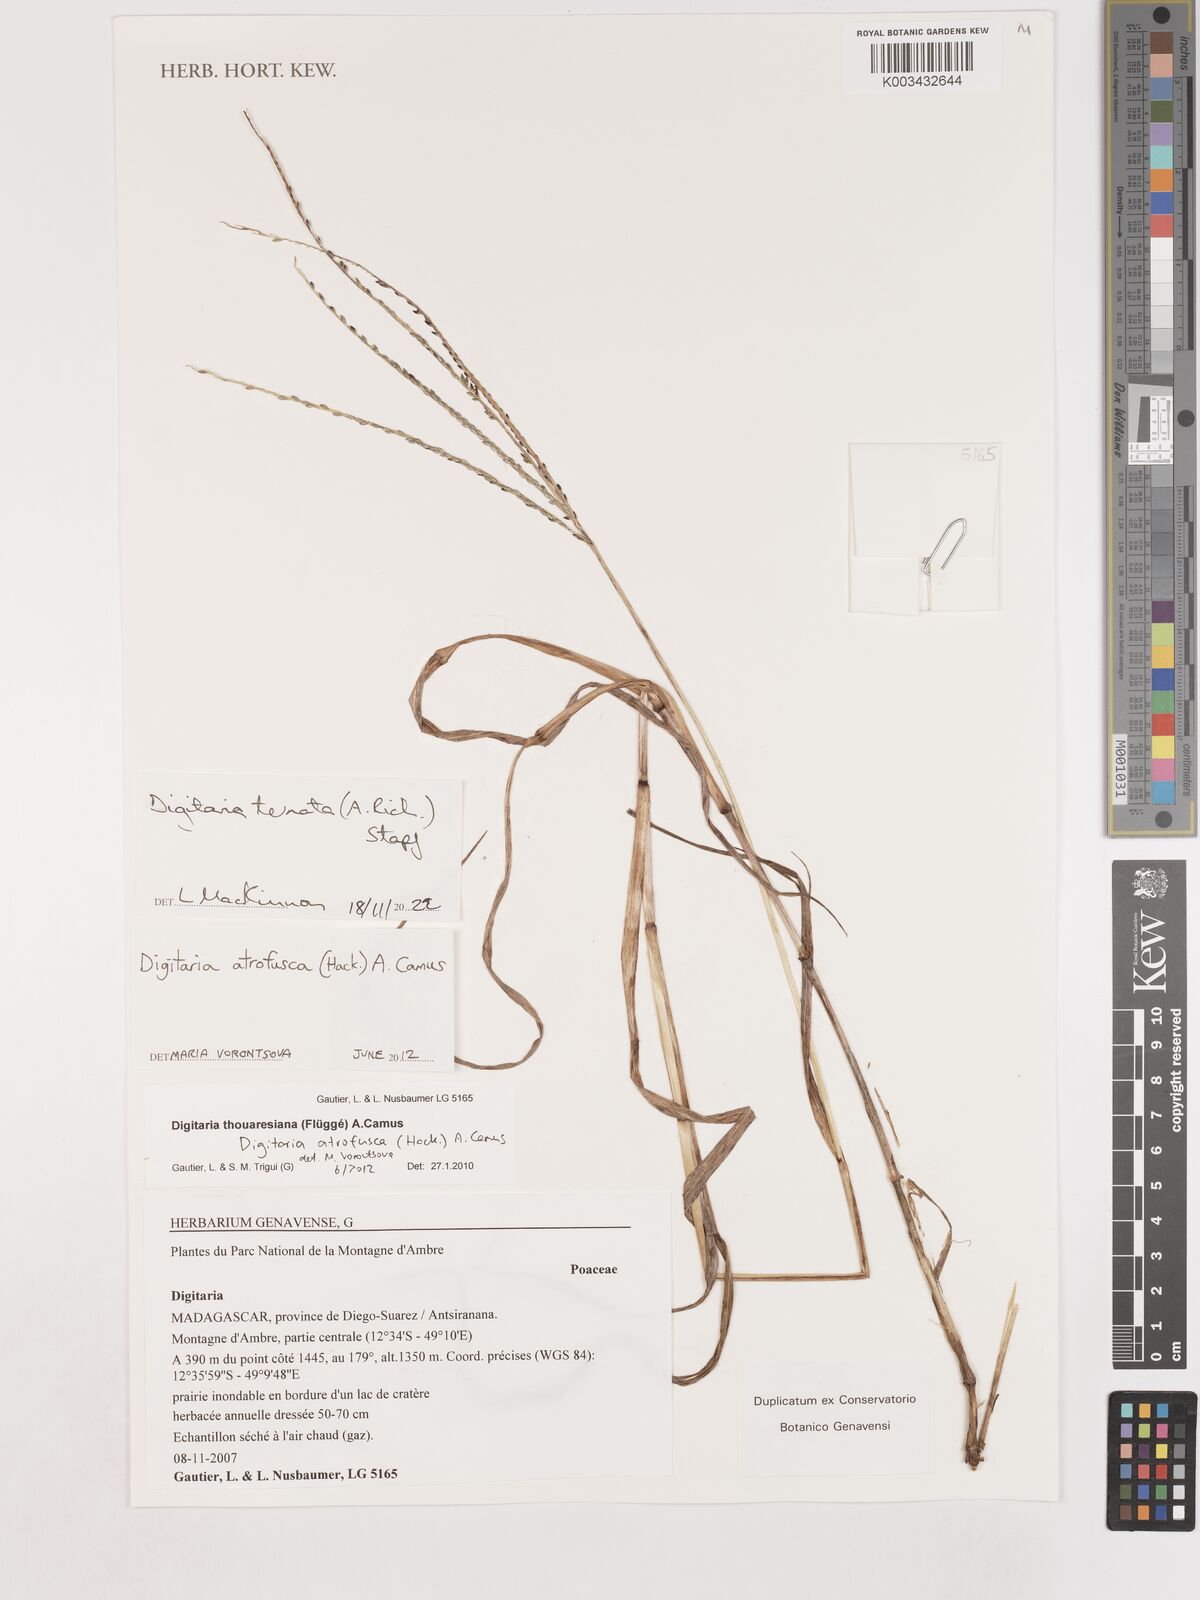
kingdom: Plantae
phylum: Tracheophyta
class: Liliopsida
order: Poales
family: Poaceae
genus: Digitaria
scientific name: Digitaria ternata
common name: Blackseed crabgrass
